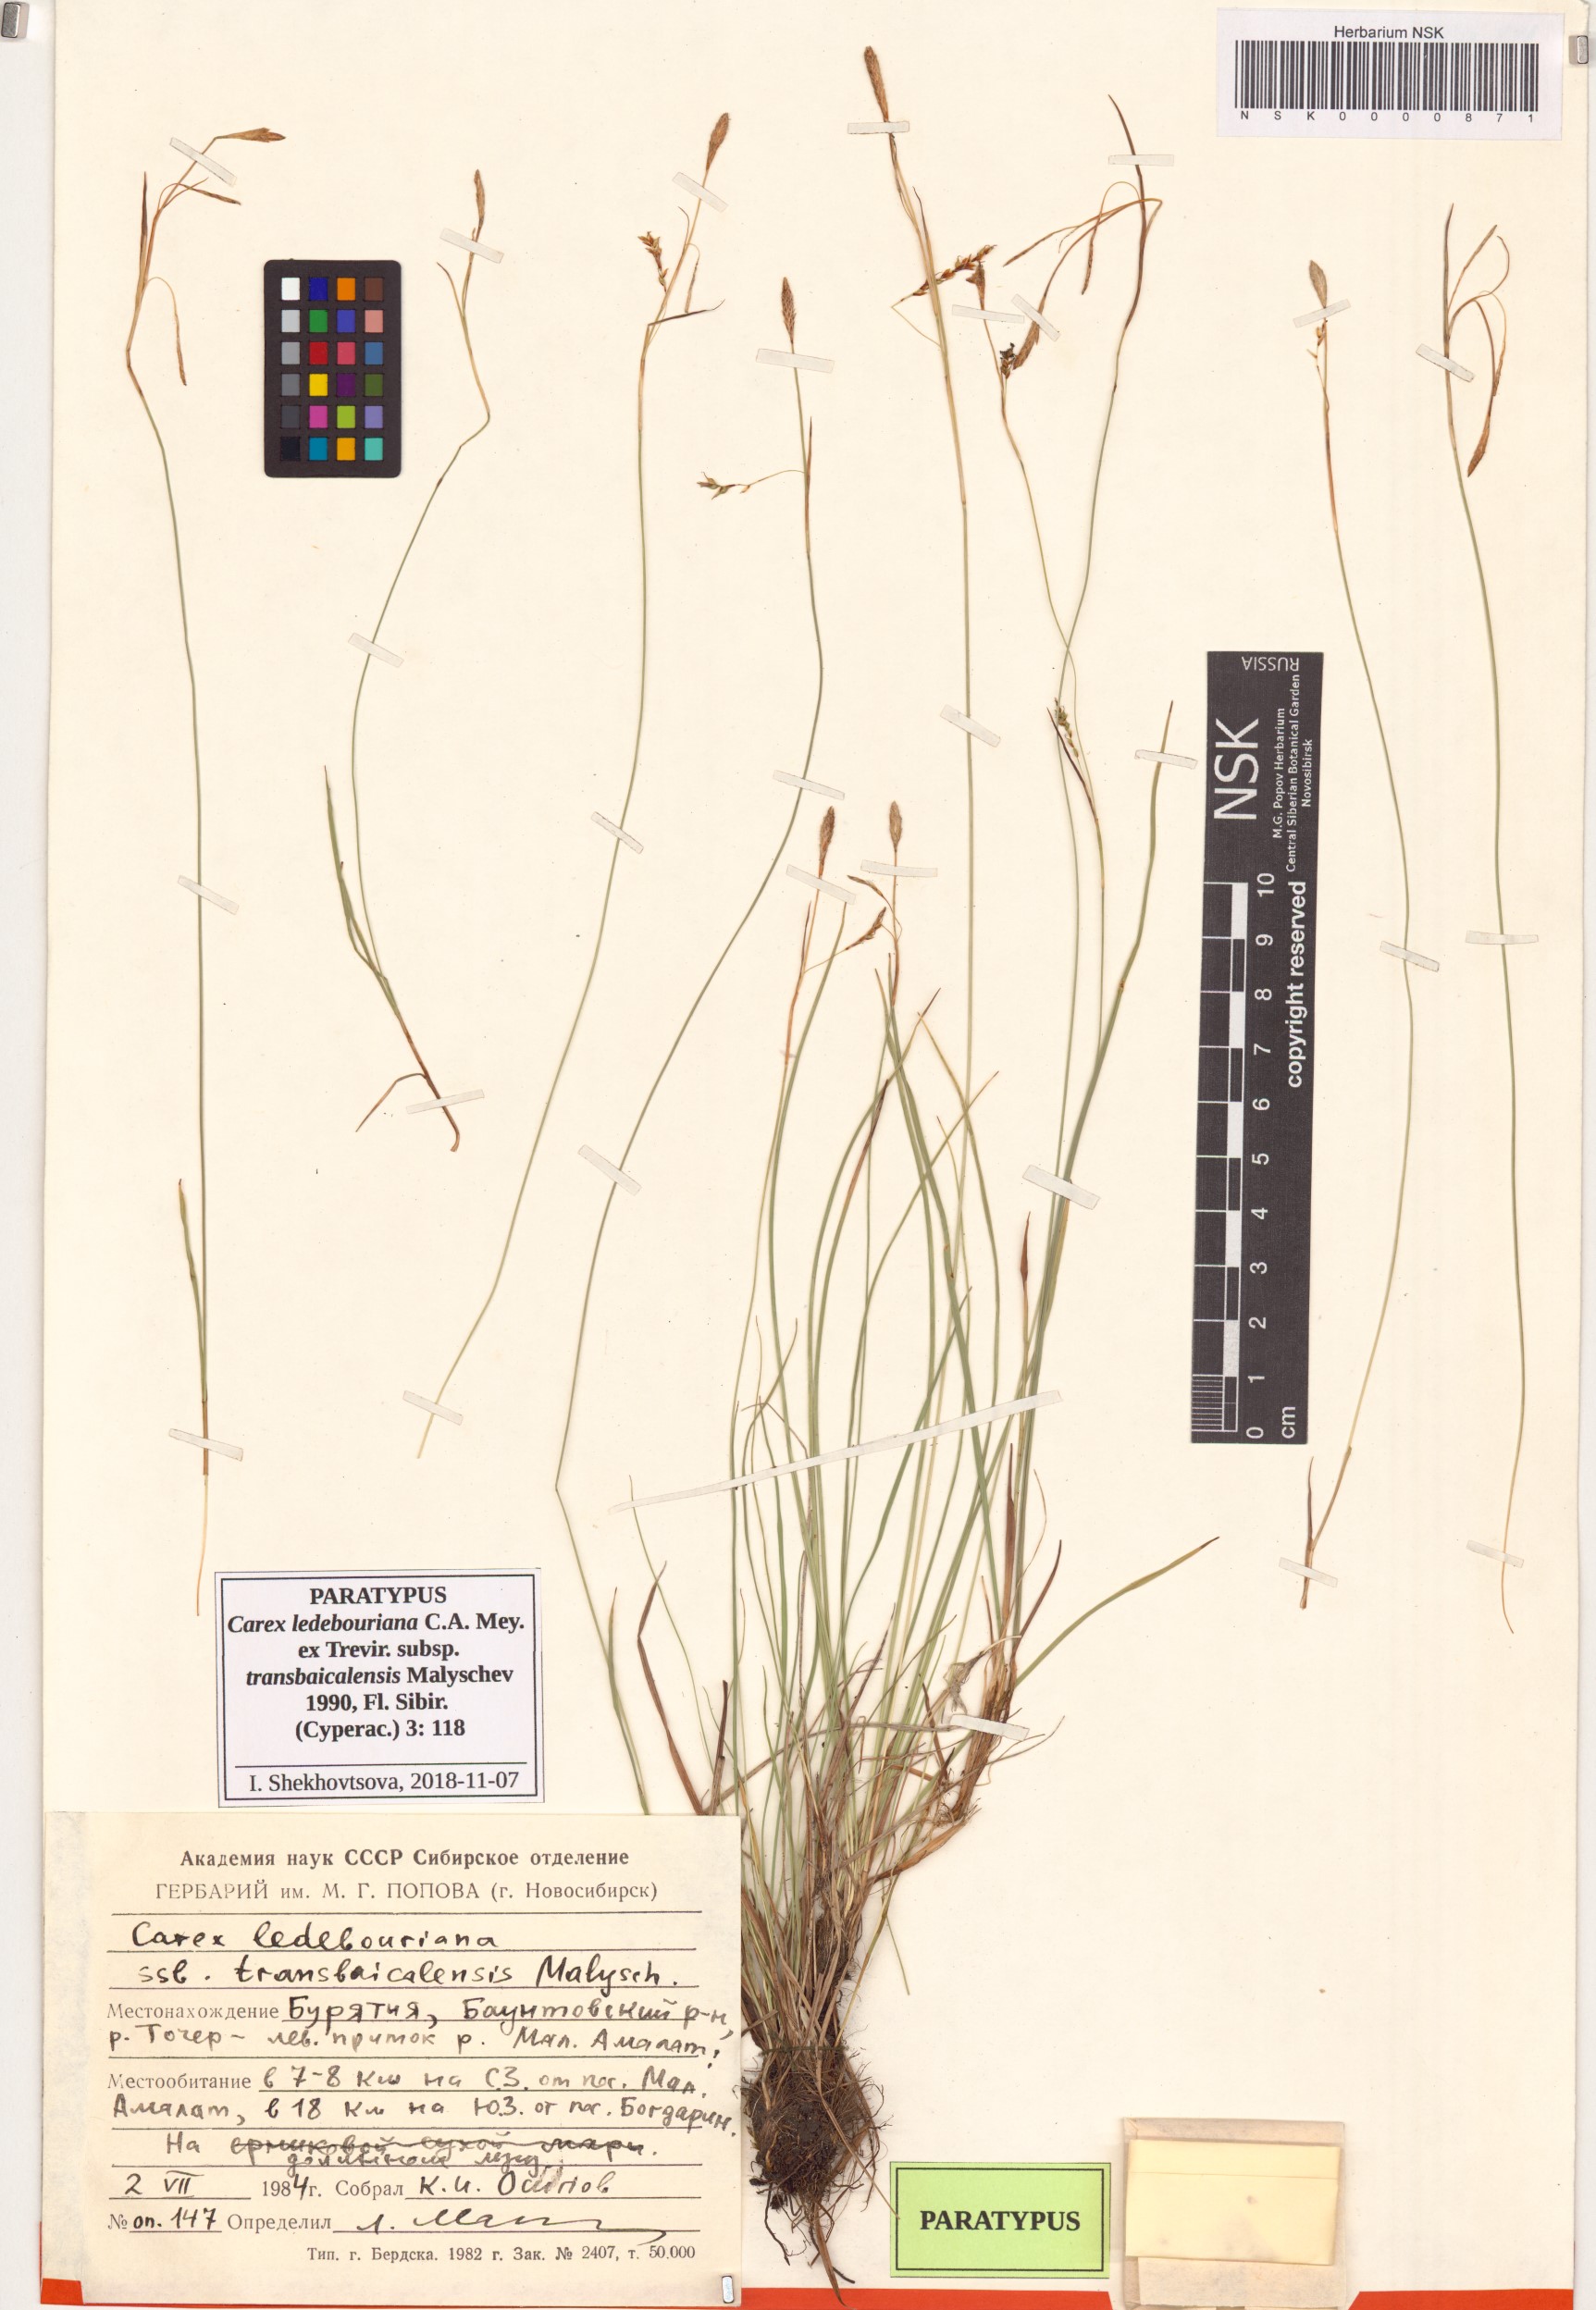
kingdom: Plantae
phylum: Tracheophyta
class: Liliopsida
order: Poales
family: Cyperaceae
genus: Carex
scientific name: Carex ledebouriana
